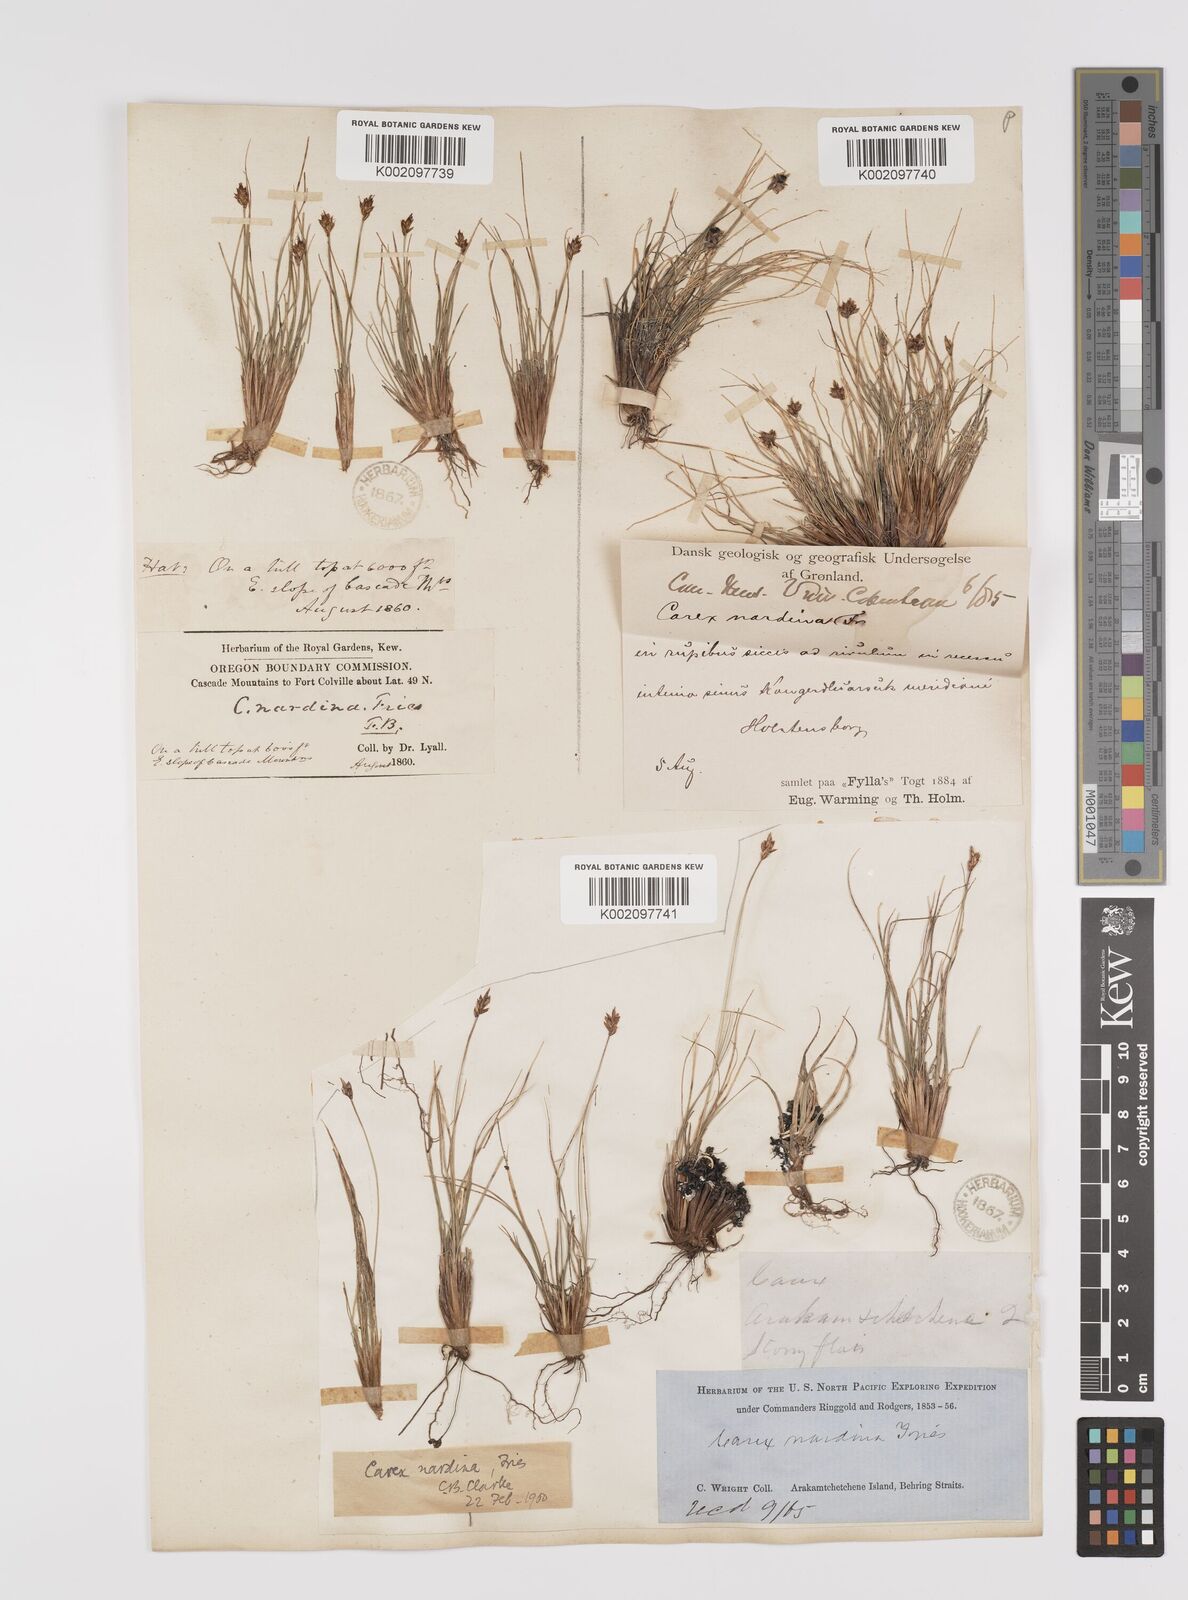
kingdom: Plantae
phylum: Tracheophyta
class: Liliopsida
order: Poales
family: Cyperaceae
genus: Carex
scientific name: Carex nardina
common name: Nard sedge
